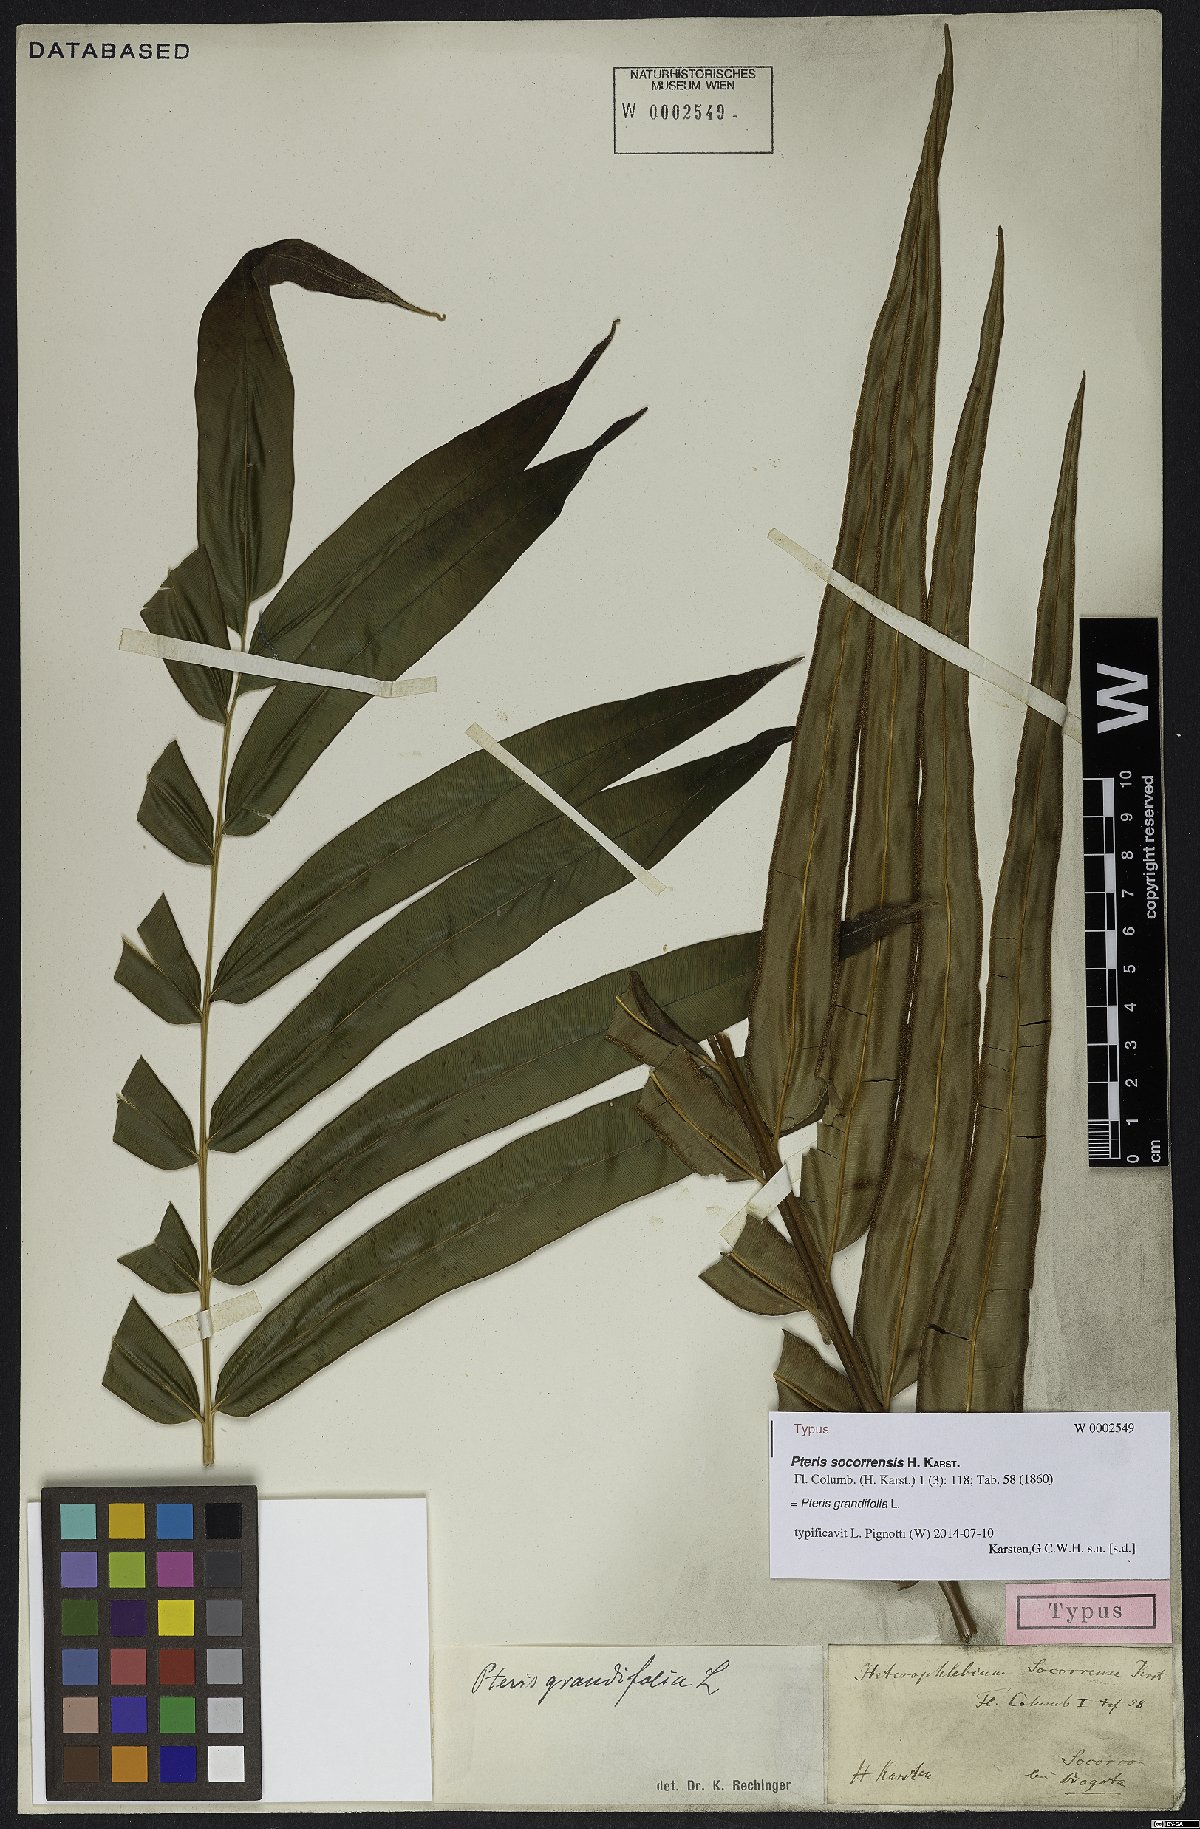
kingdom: Plantae
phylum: Tracheophyta
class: Polypodiopsida
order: Polypodiales
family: Pteridaceae
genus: Pteris
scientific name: Pteris grandifolia
